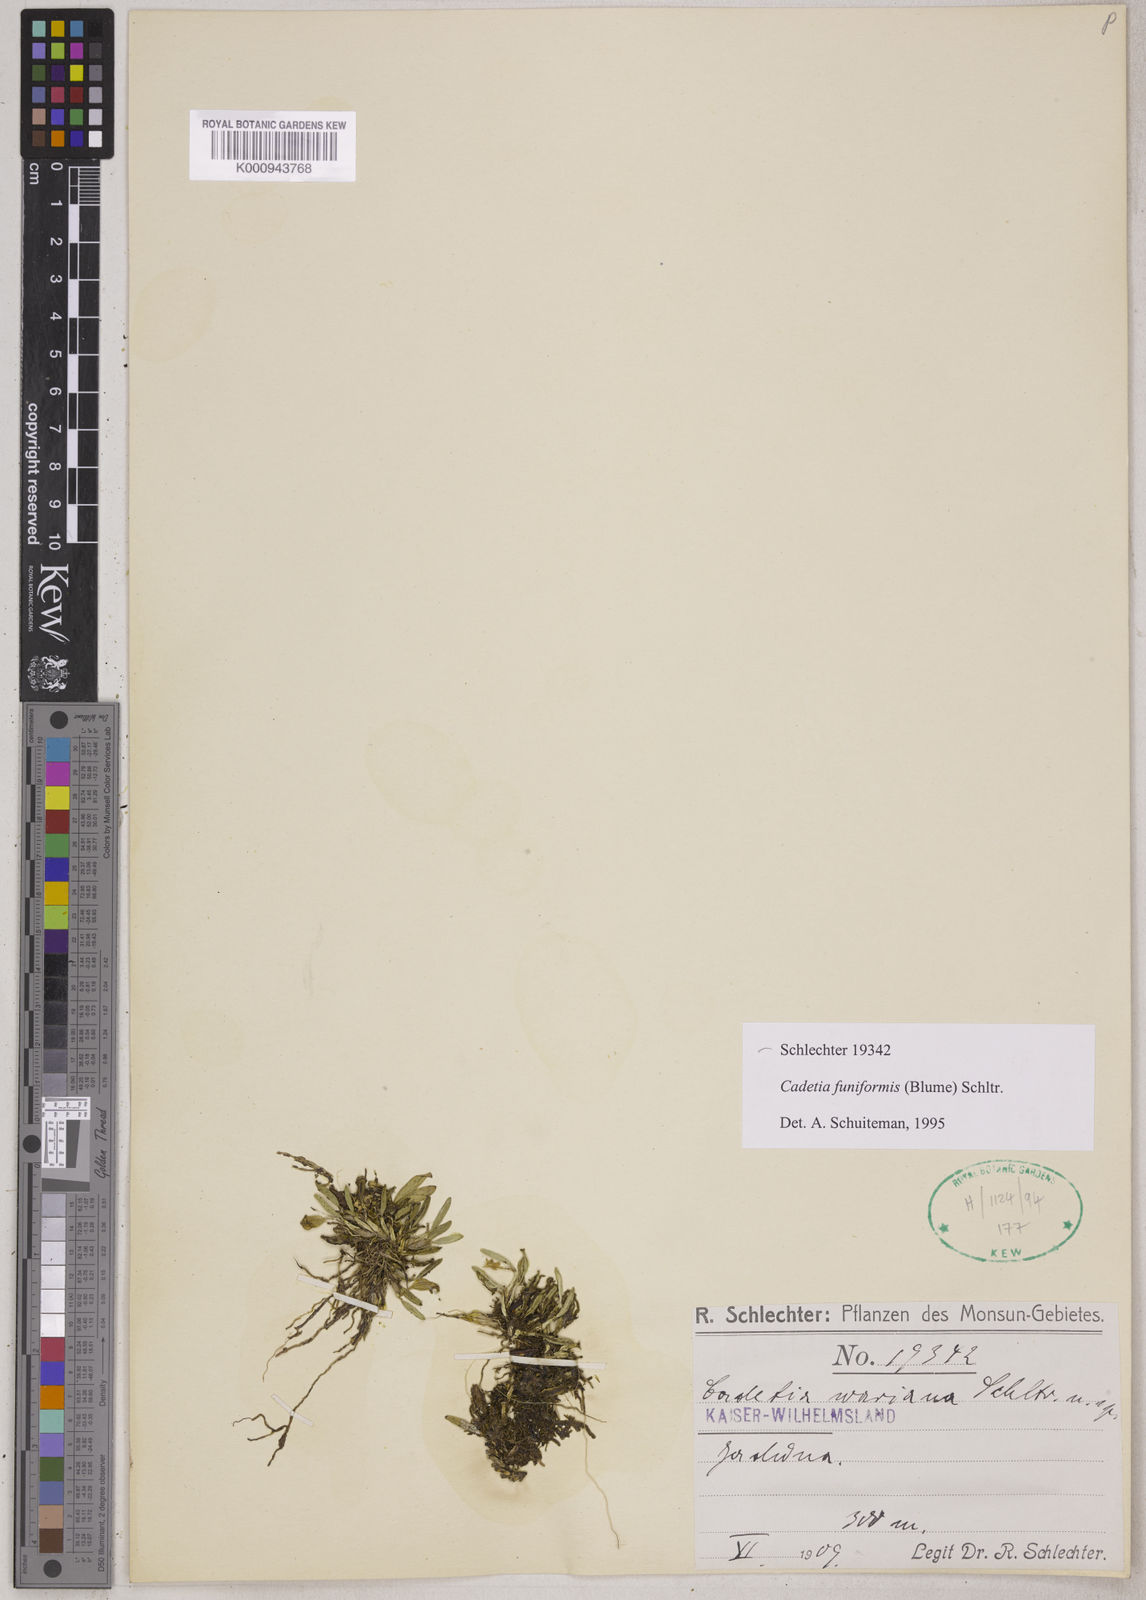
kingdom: Plantae
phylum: Tracheophyta
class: Liliopsida
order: Asparagales
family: Orchidaceae
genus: Dendrobium
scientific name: Dendrobium funiforme
